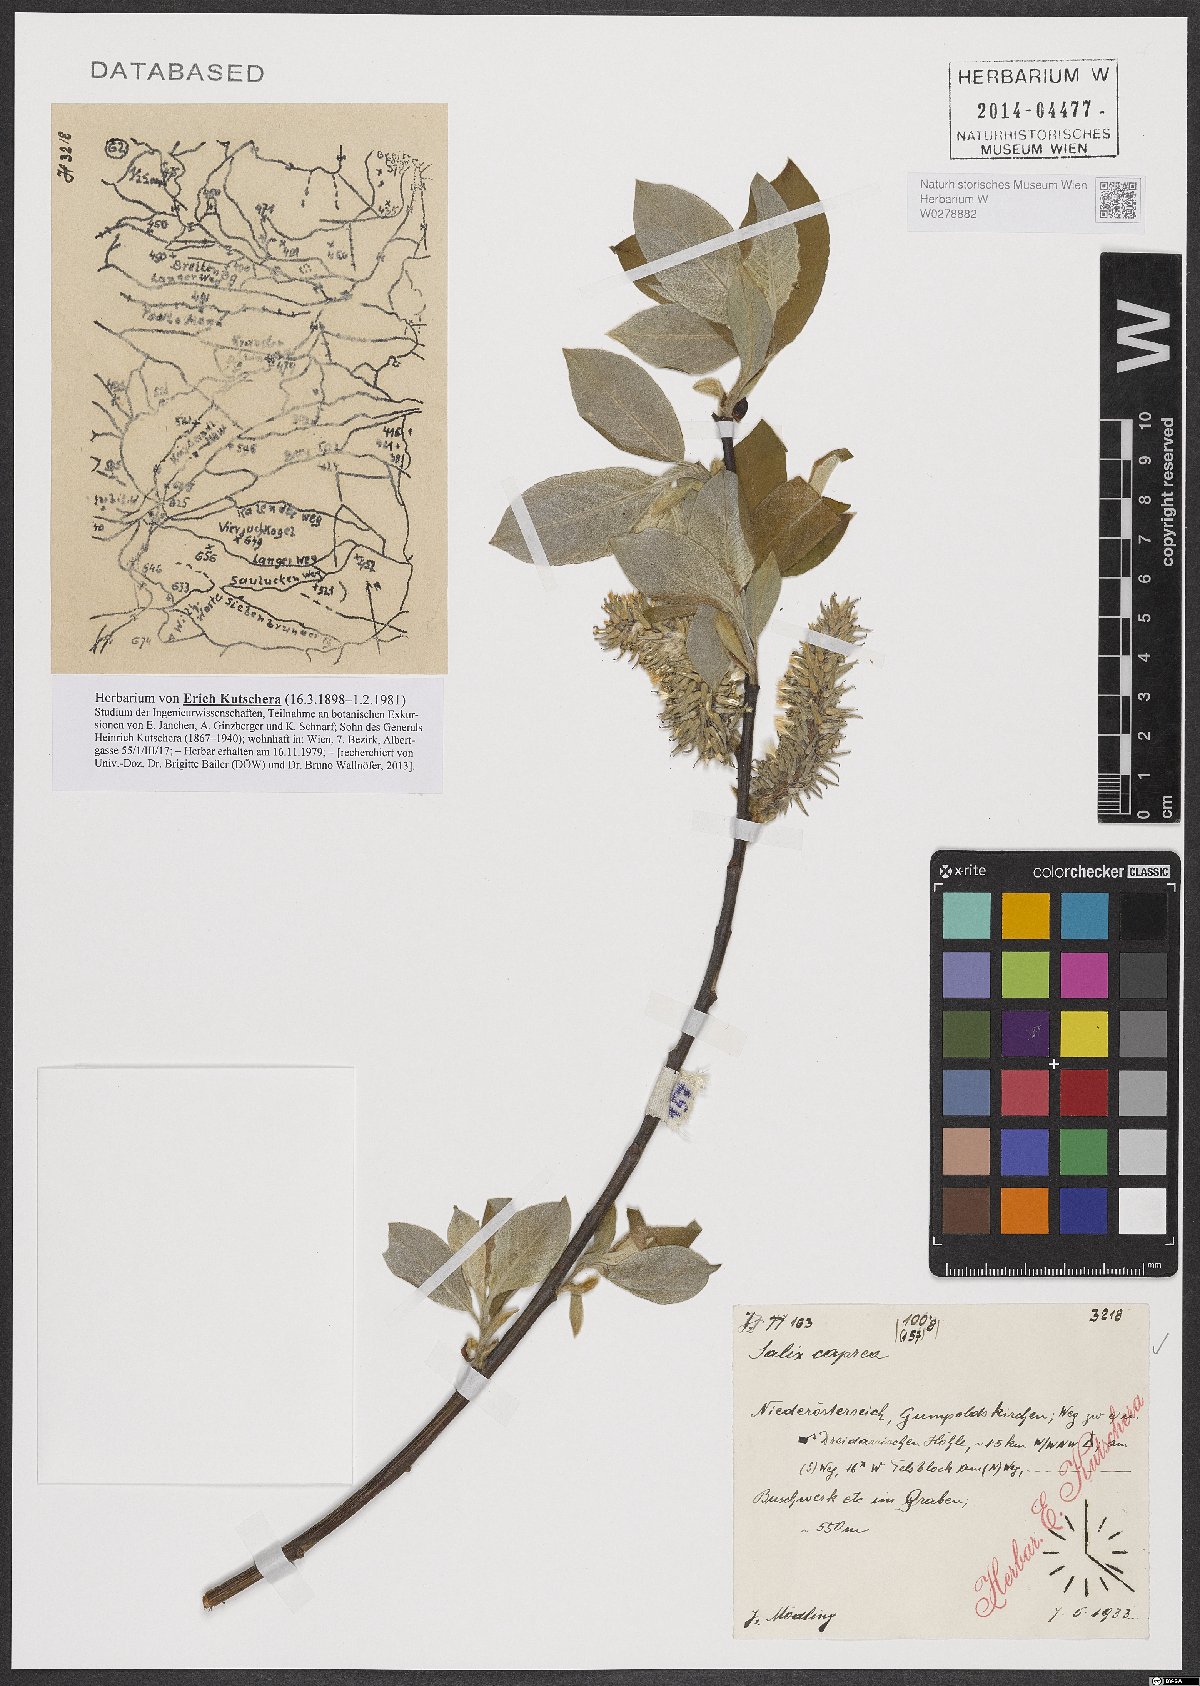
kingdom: Plantae
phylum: Tracheophyta
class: Magnoliopsida
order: Malpighiales
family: Salicaceae
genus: Salix
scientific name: Salix caprea
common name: Goat willow
